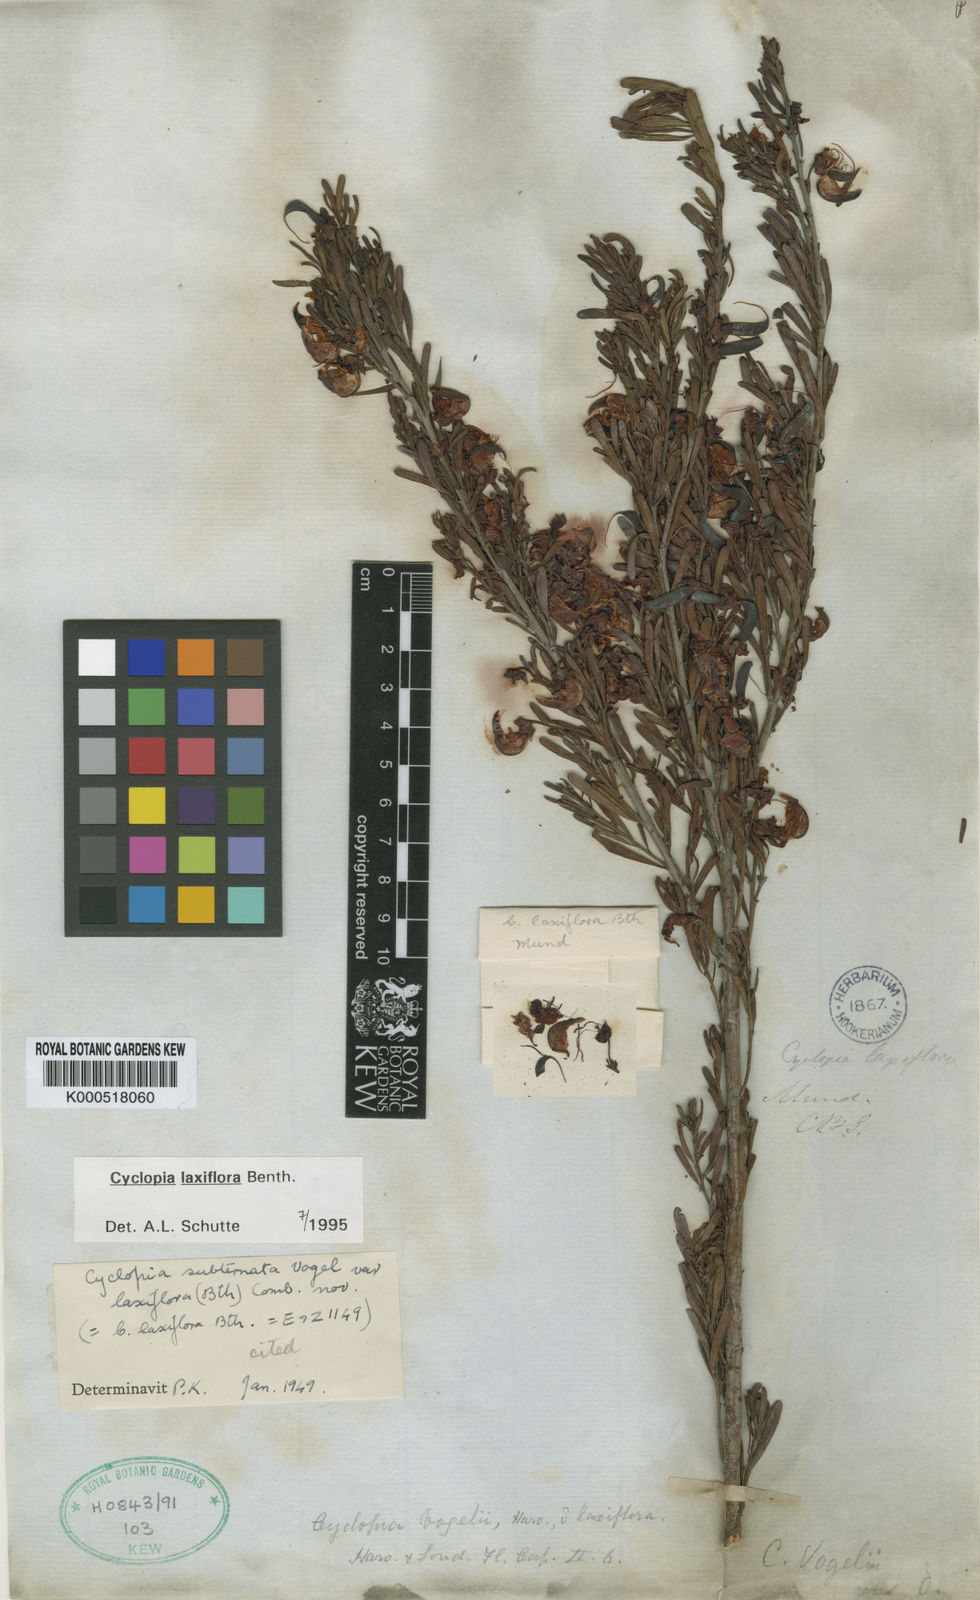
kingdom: Plantae
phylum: Tracheophyta
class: Magnoliopsida
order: Fabales
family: Fabaceae
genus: Cyclopia
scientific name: Cyclopia laxiflora
